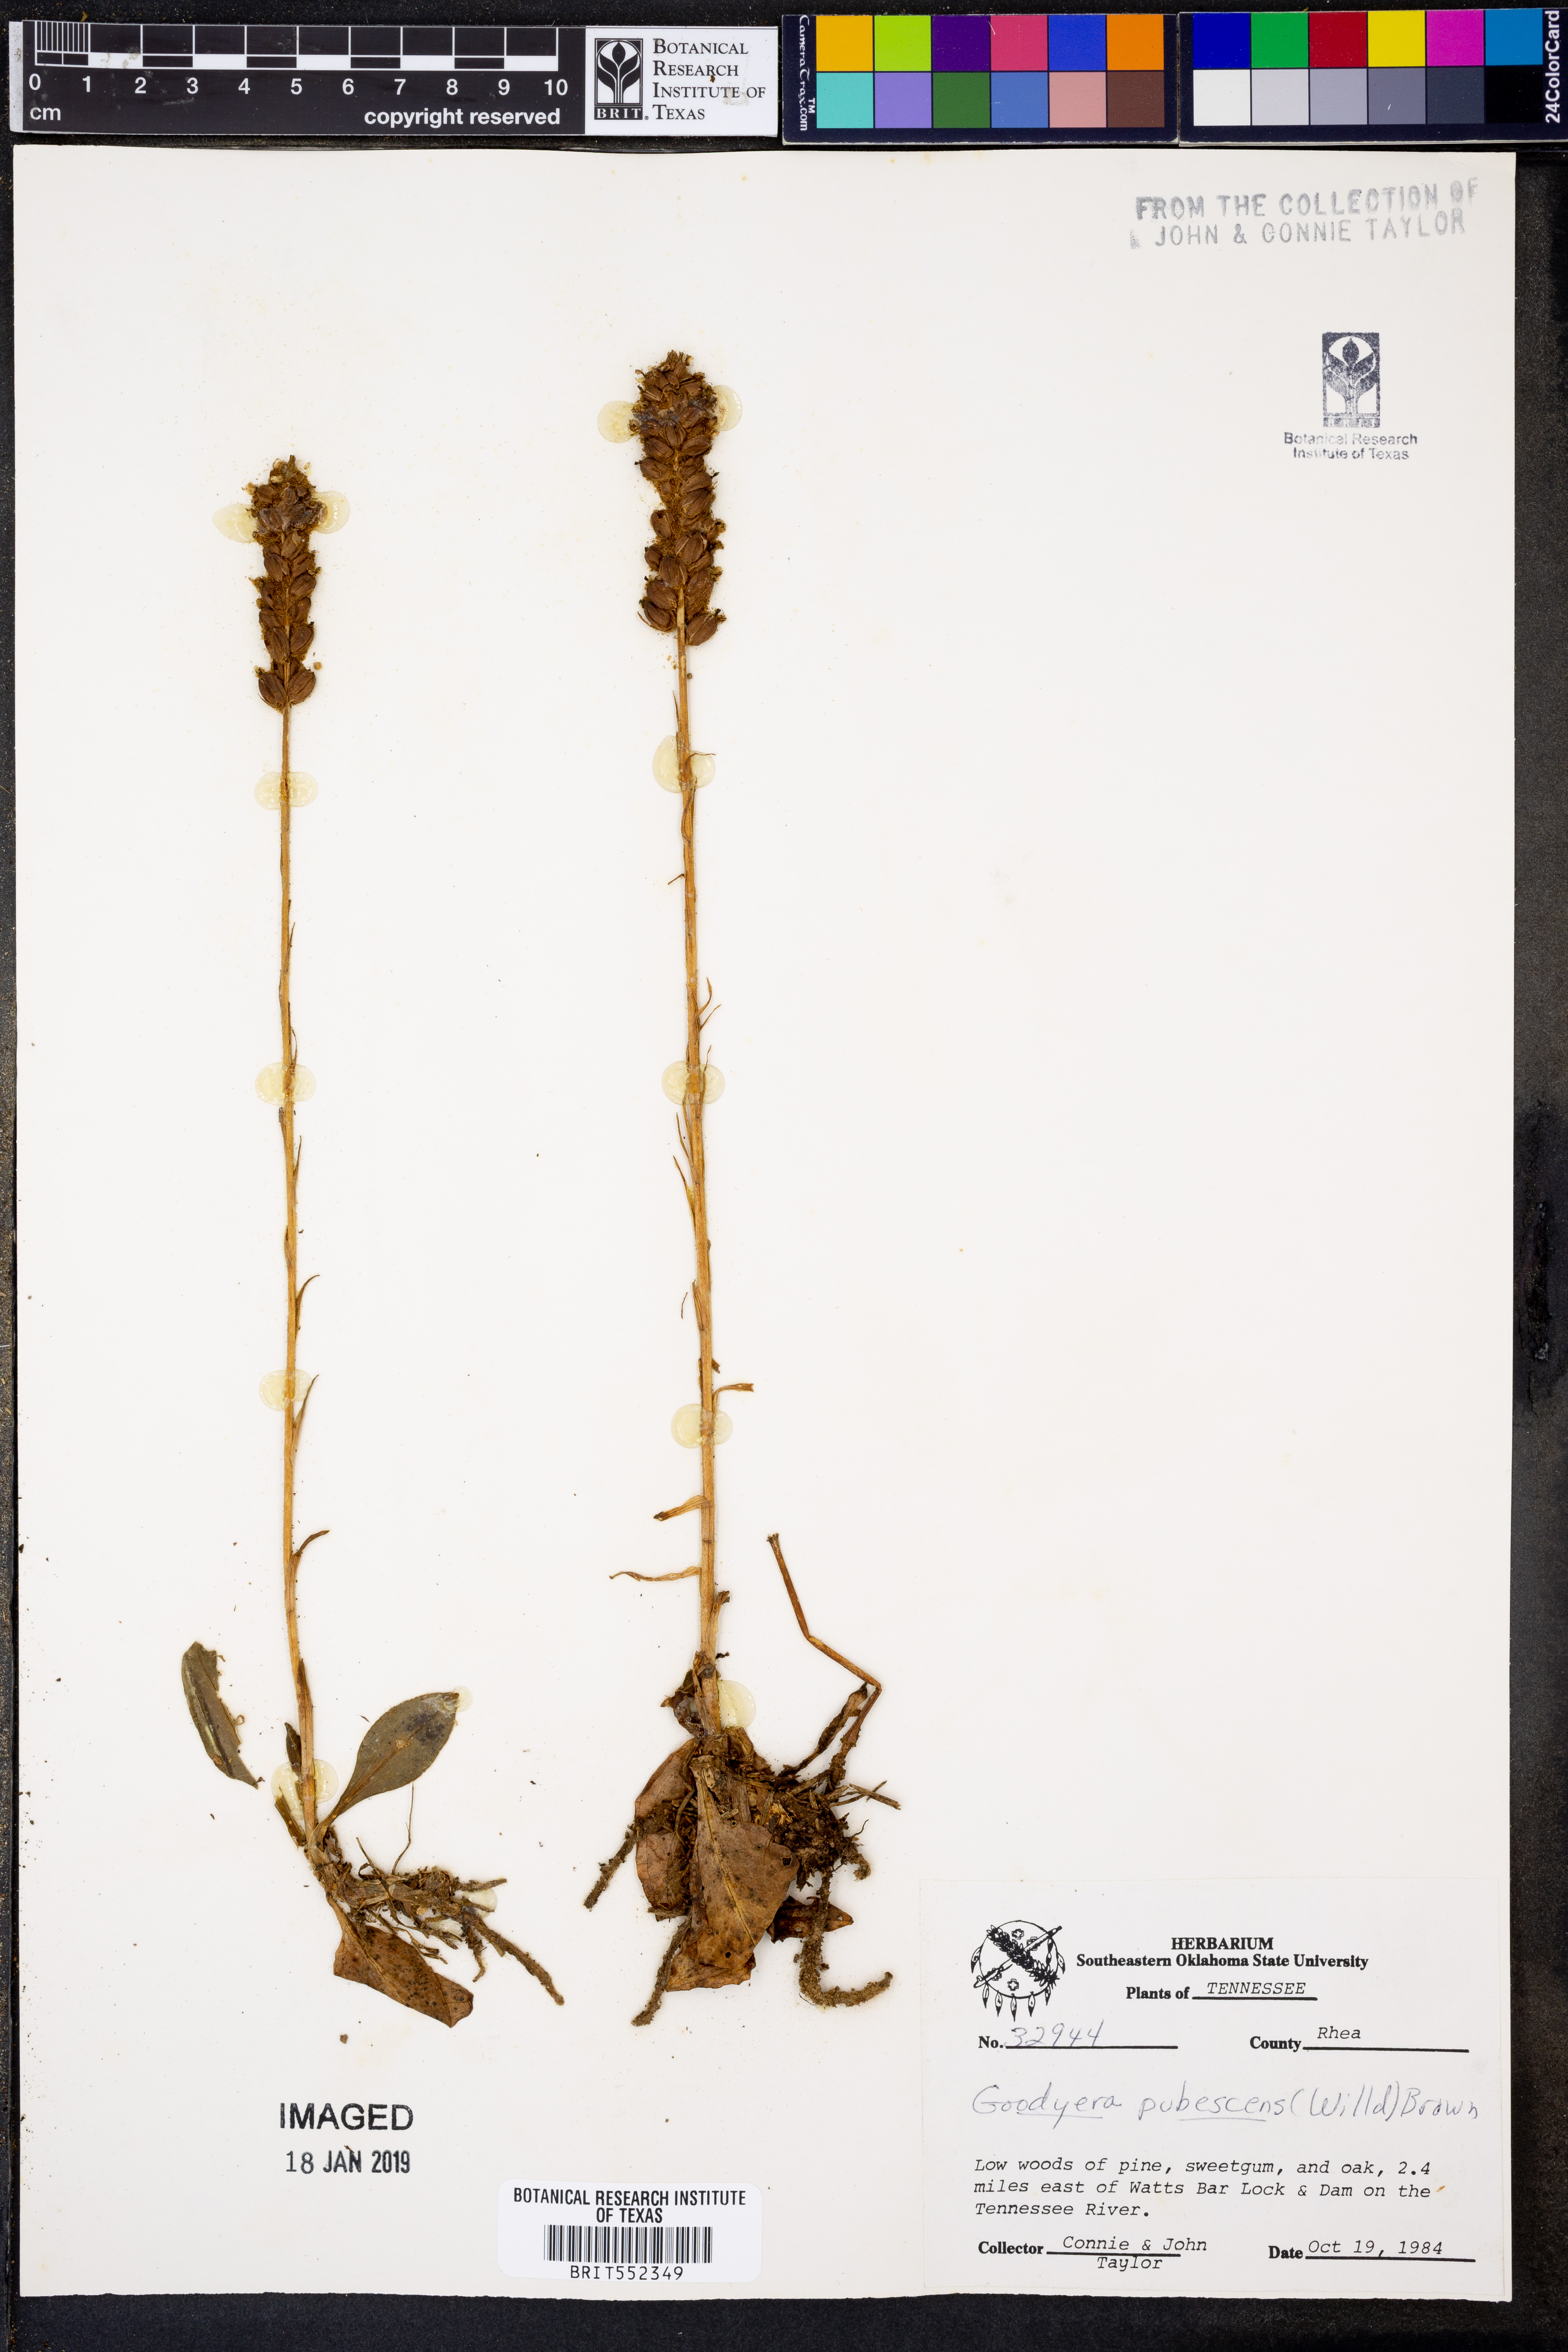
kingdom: Plantae
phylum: Tracheophyta
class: Liliopsida
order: Asparagales
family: Orchidaceae
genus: Goodyera
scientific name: Goodyera pubescens
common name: Downy rattlesnake-plantain
